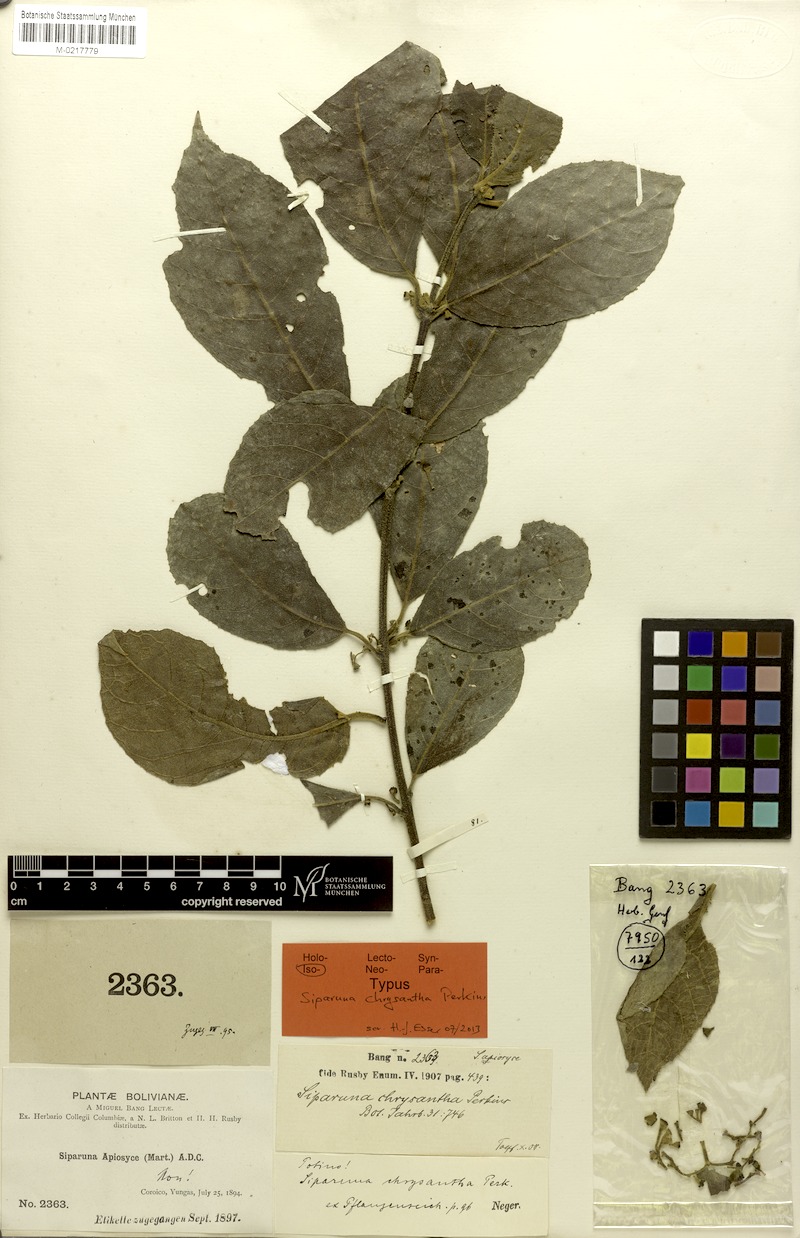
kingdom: Plantae
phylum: Tracheophyta
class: Magnoliopsida
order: Laurales
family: Siparunaceae
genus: Siparuna
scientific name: Siparuna tomentosa
